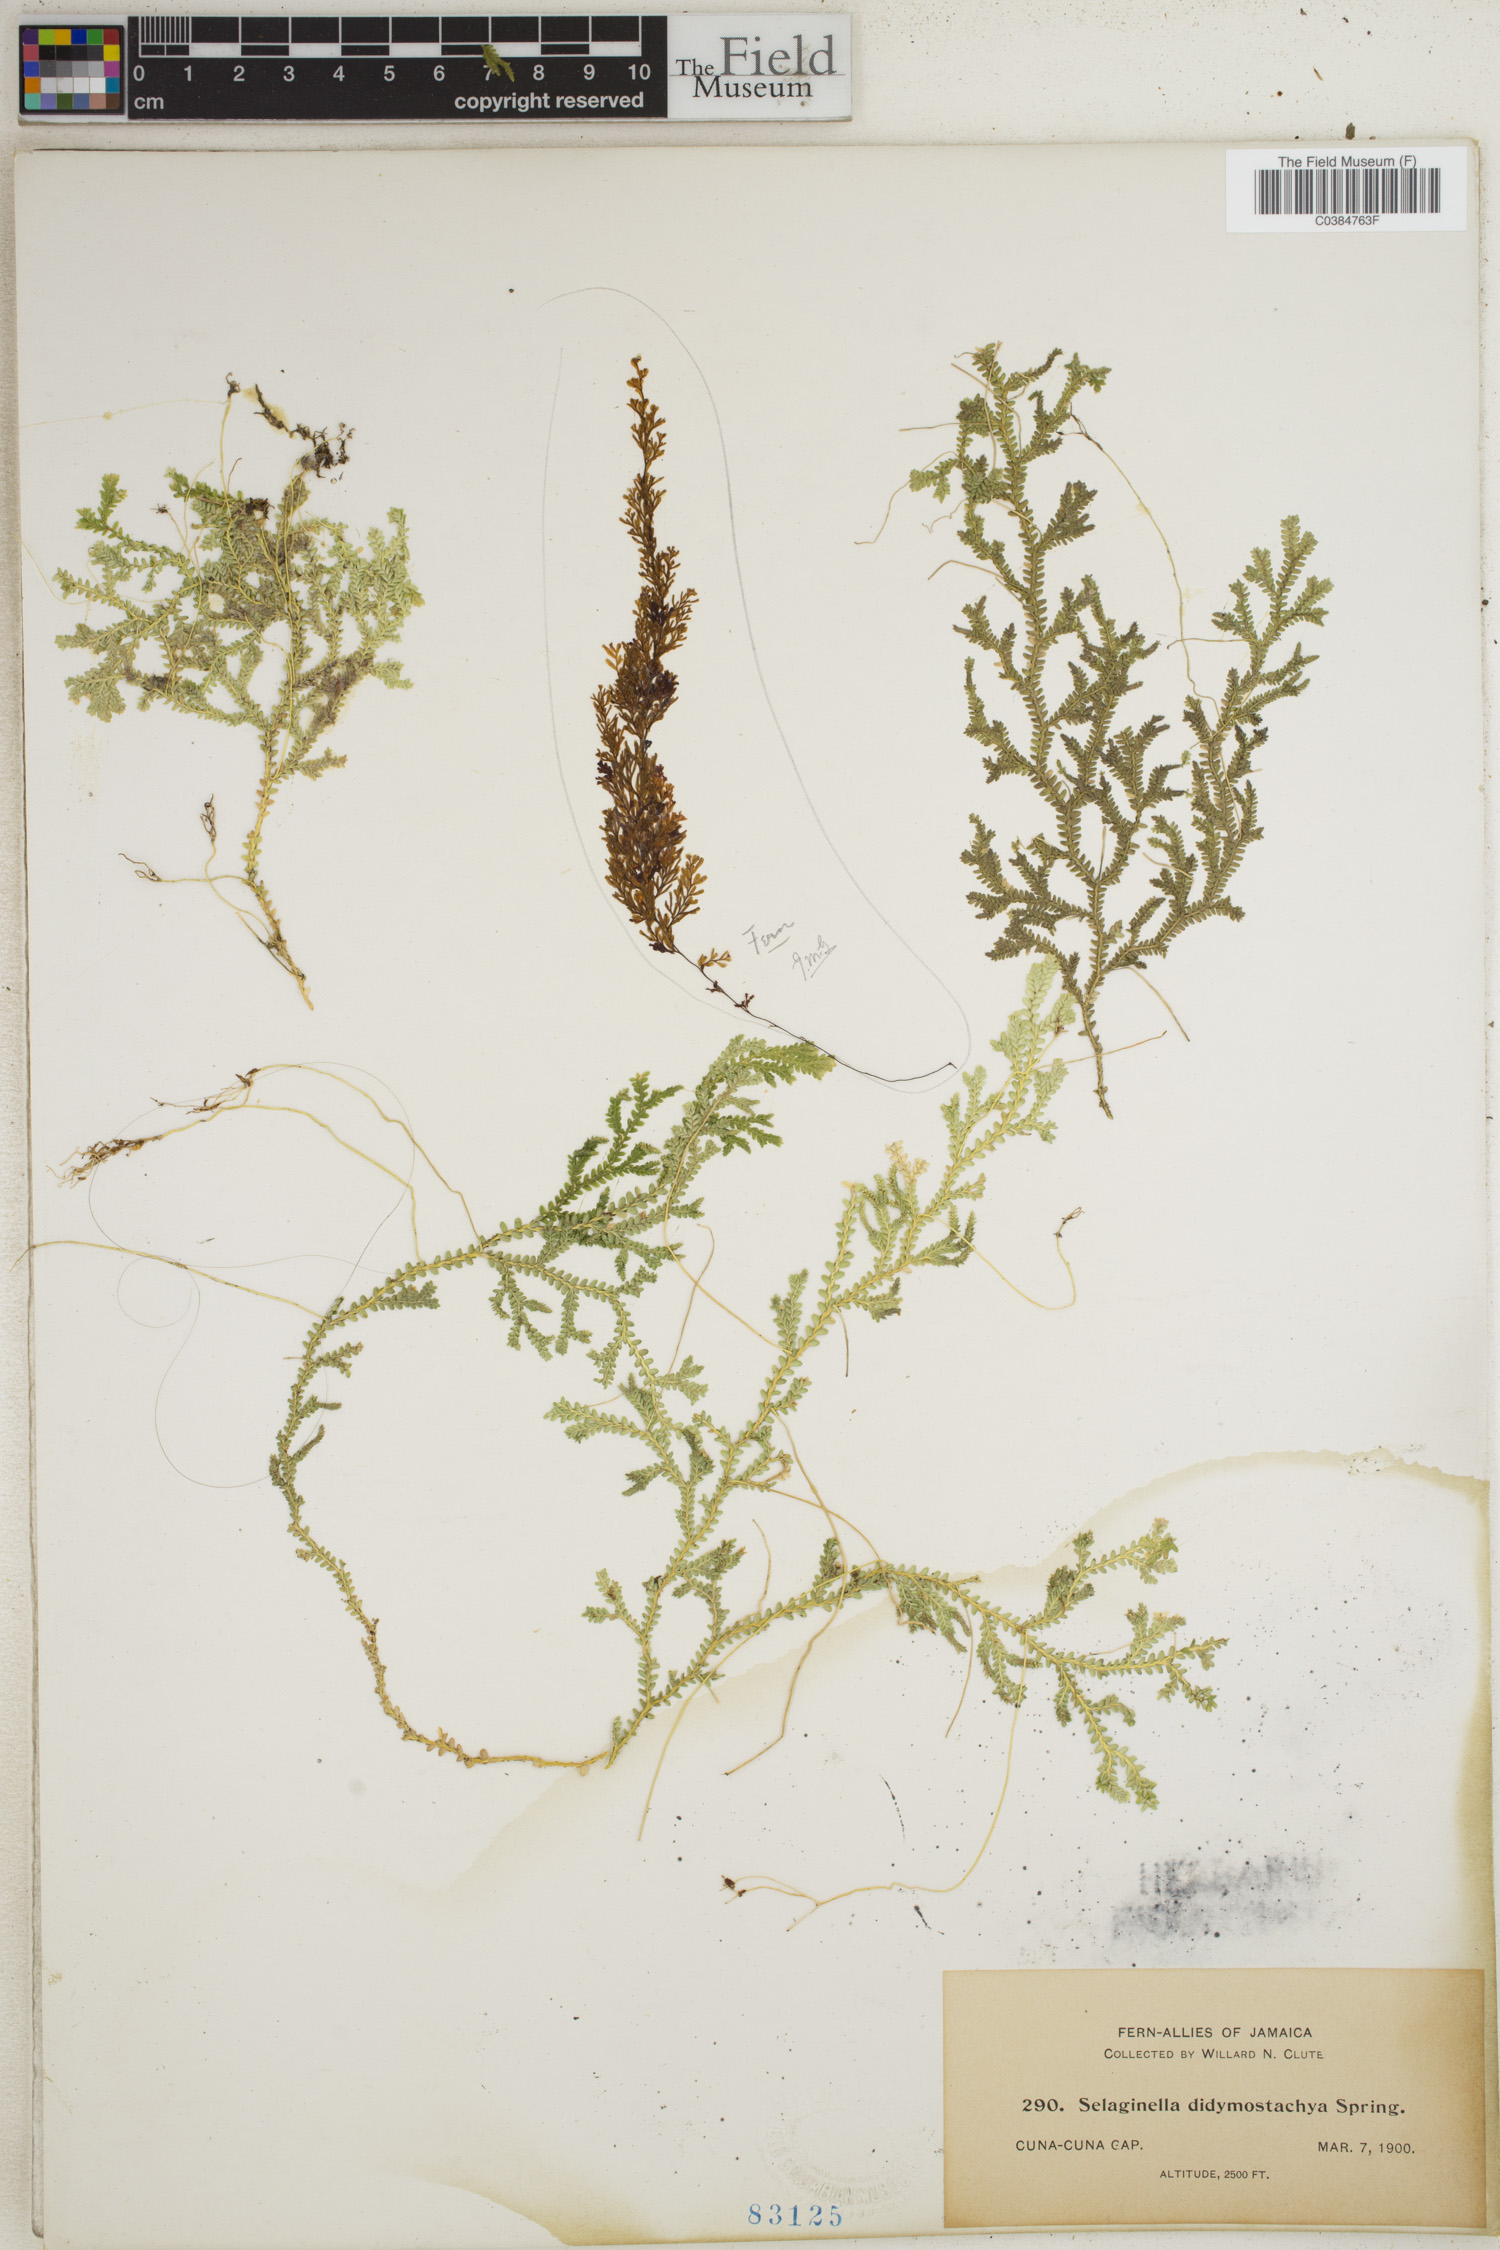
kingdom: Plantae
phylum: Tracheophyta
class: Lycopodiopsida
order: Selaginellales
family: Selaginellaceae
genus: Selaginella
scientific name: Selaginella denudata
